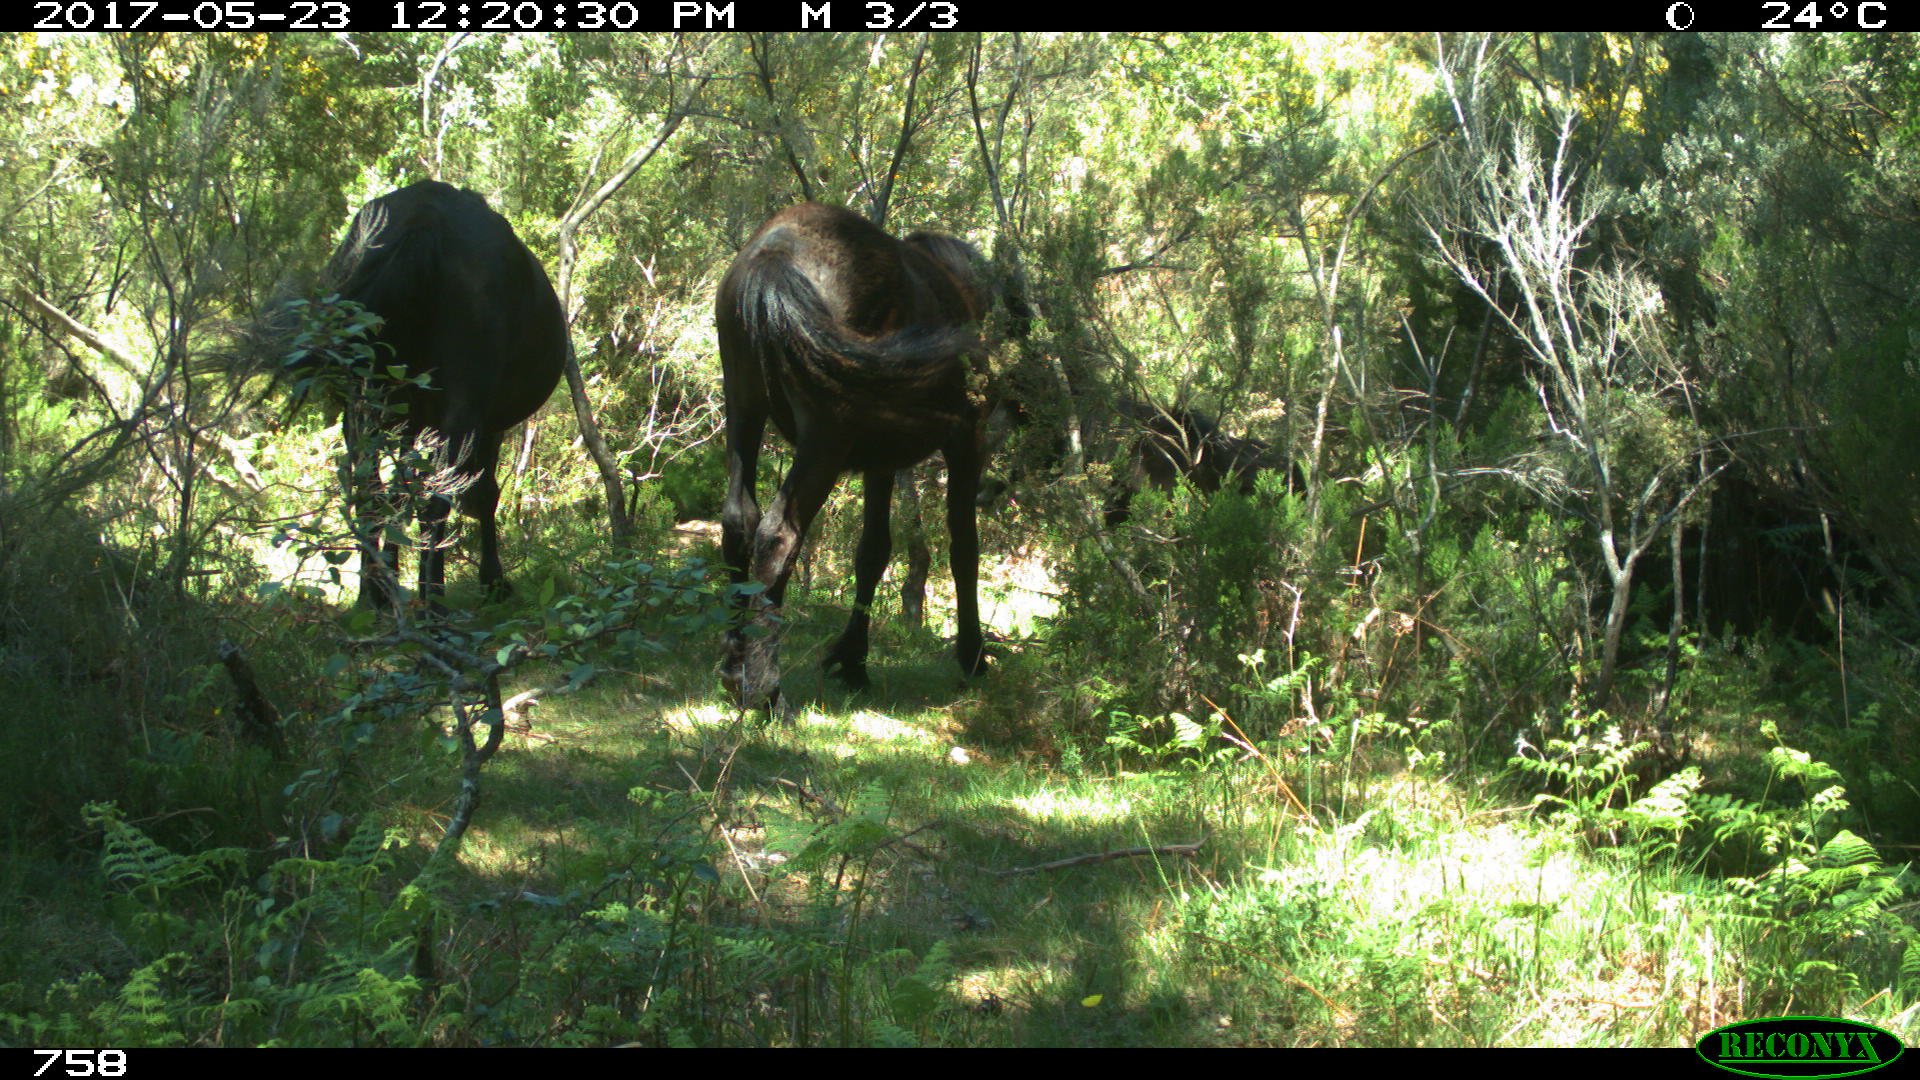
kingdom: Animalia
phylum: Chordata
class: Mammalia
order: Perissodactyla
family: Equidae
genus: Equus
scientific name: Equus caballus
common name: Horse
